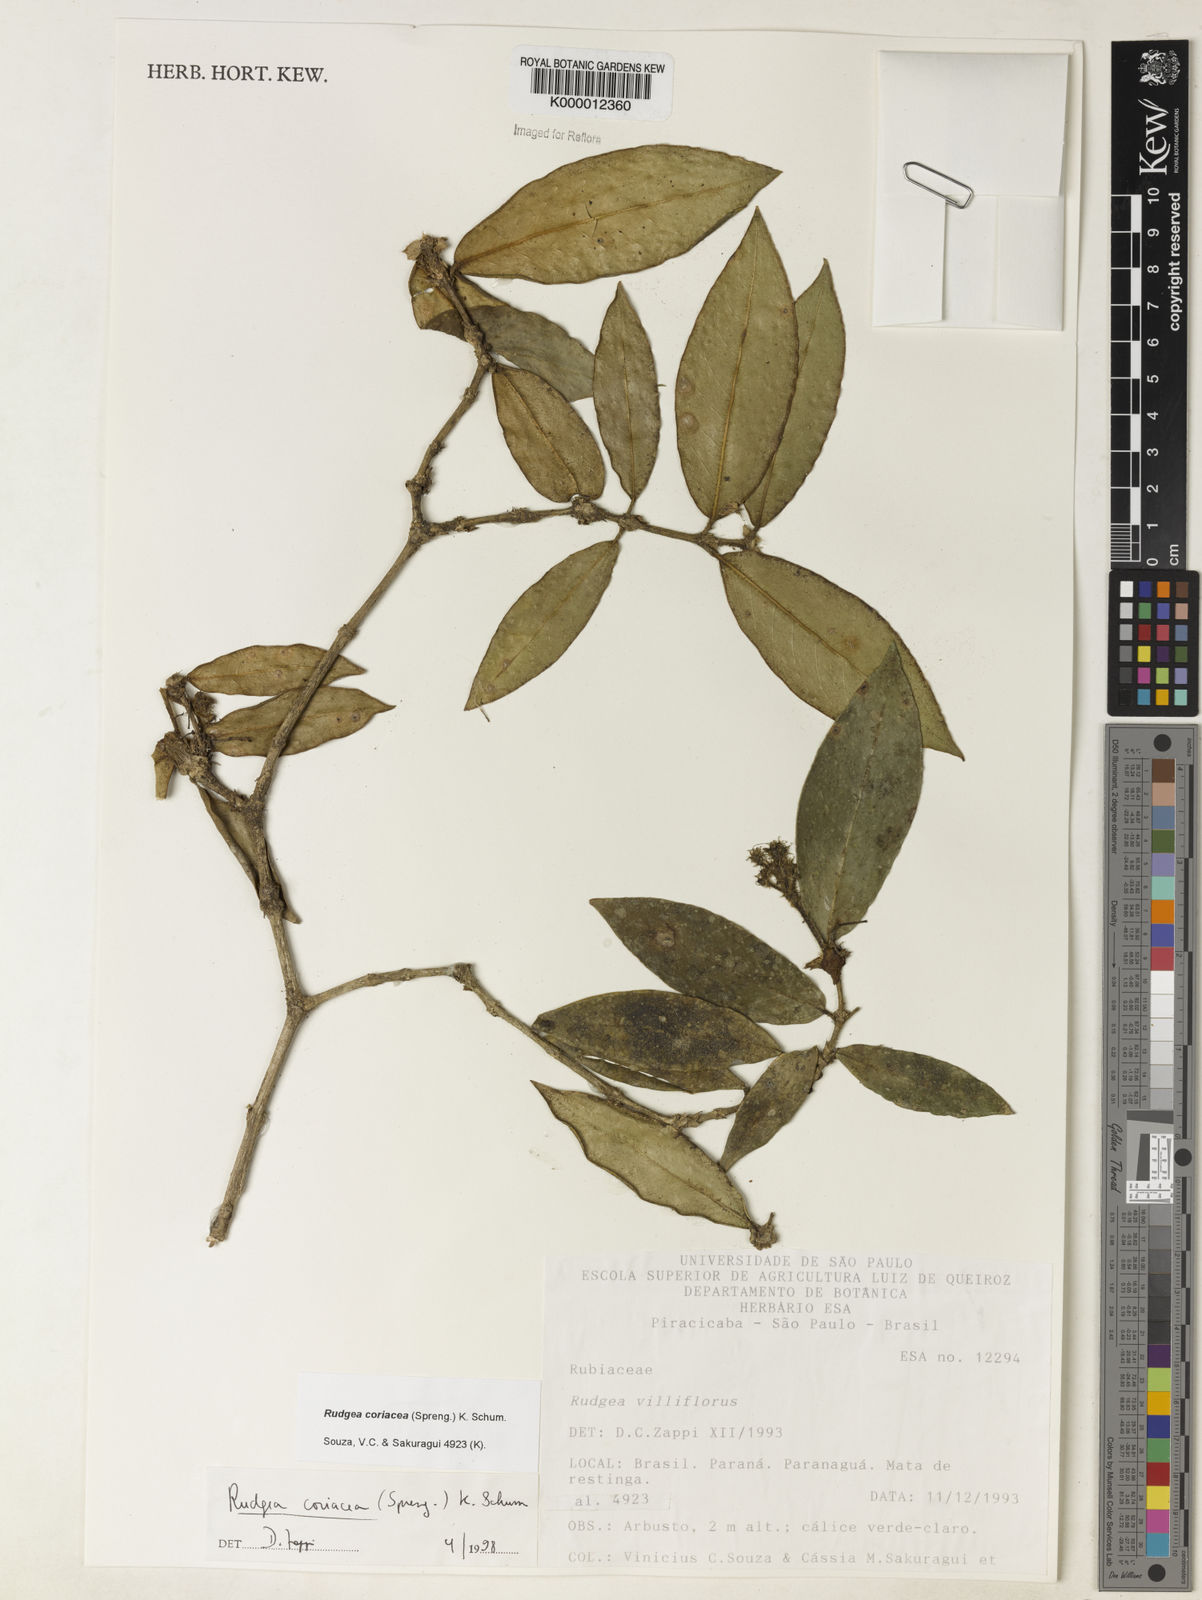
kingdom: Plantae
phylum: Tracheophyta
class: Magnoliopsida
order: Gentianales
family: Rubiaceae
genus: Rudgea
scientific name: Rudgea coriacea
